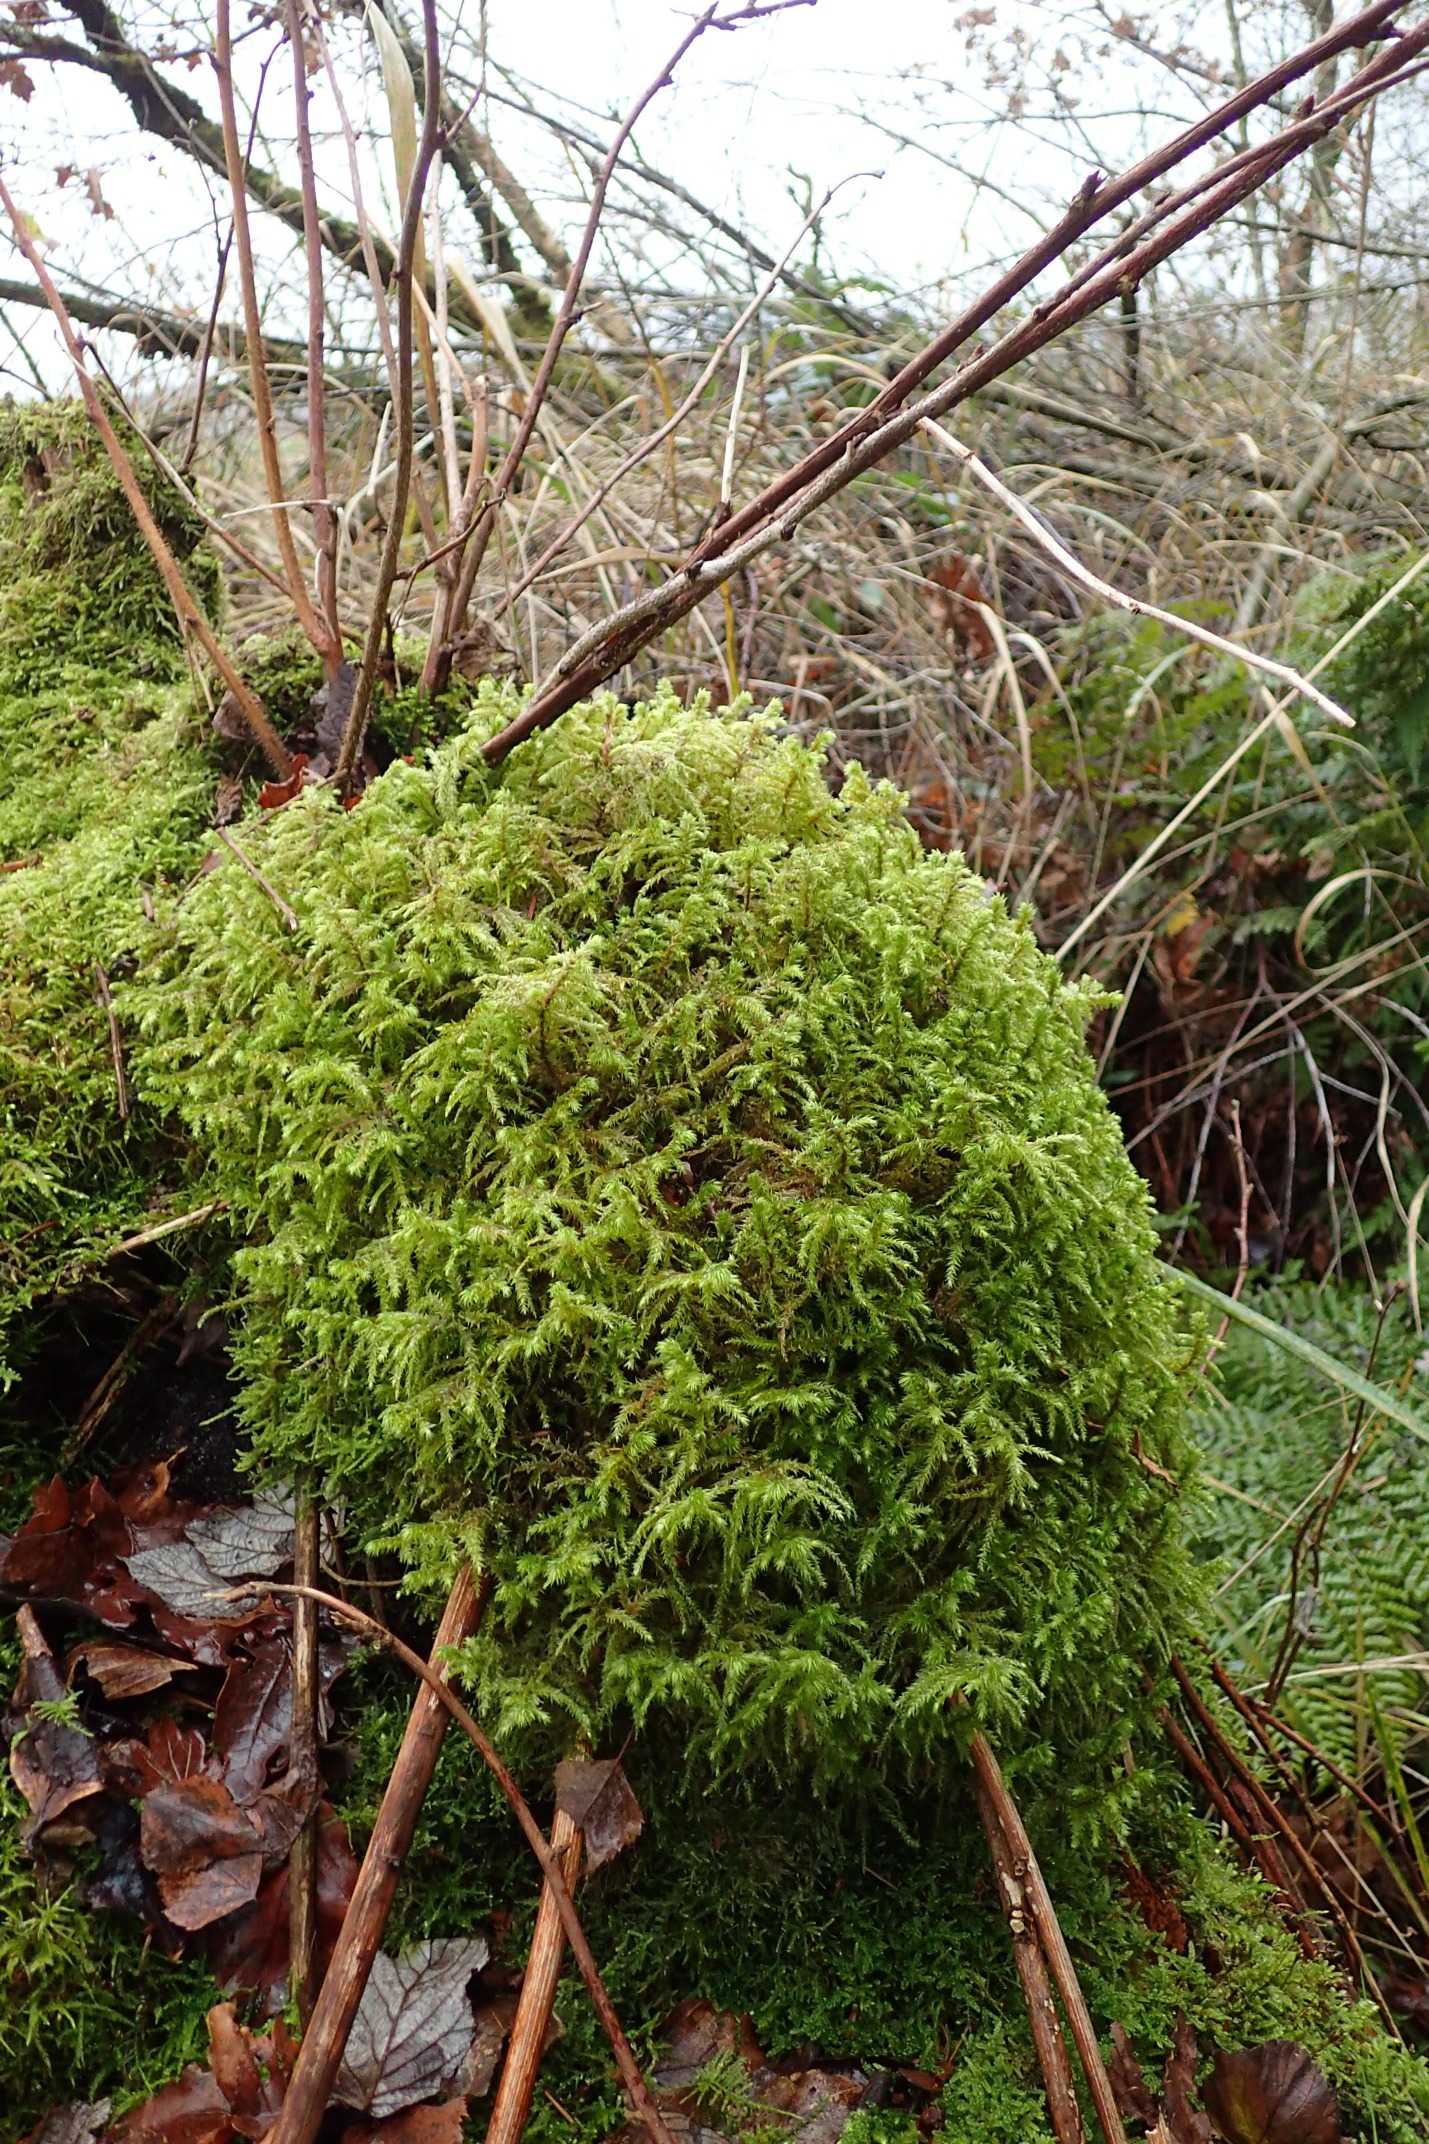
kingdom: Plantae
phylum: Bryophyta
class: Bryopsida
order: Hypnales
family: Hylocomiaceae
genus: Hylocomiadelphus
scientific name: Hylocomiadelphus triquetrus
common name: Stor kransemos
